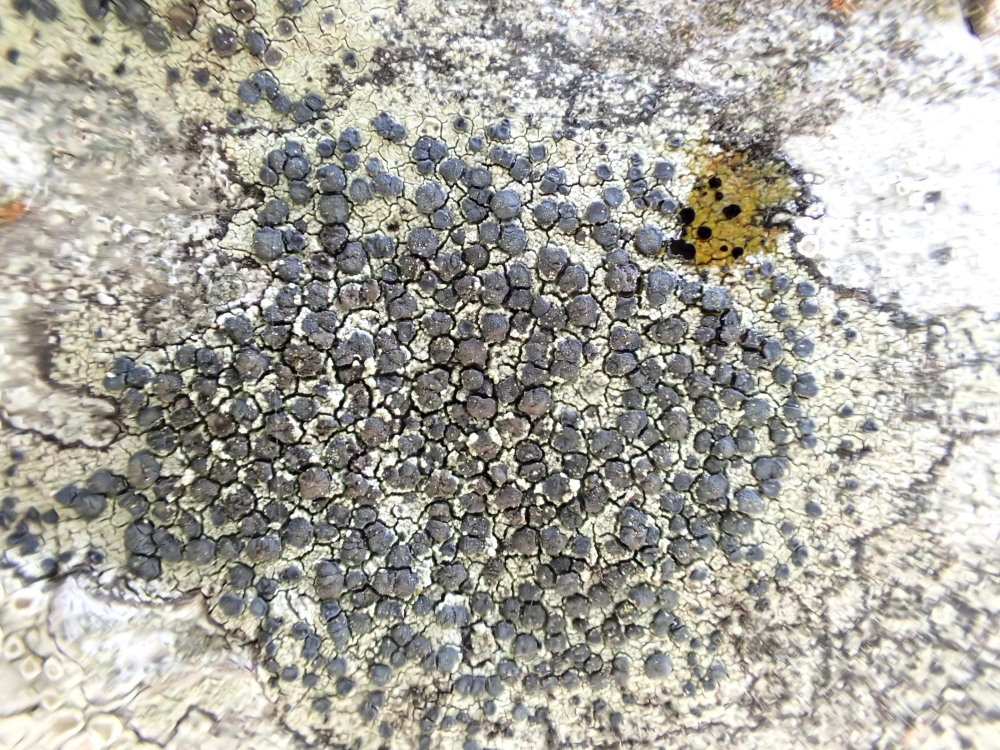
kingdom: Fungi
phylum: Ascomycota
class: Lecanoromycetes
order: Lecanorales
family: Lecanoraceae
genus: Lecidella
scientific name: Lecidella elaeochroma
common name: grågrøn skivelav
